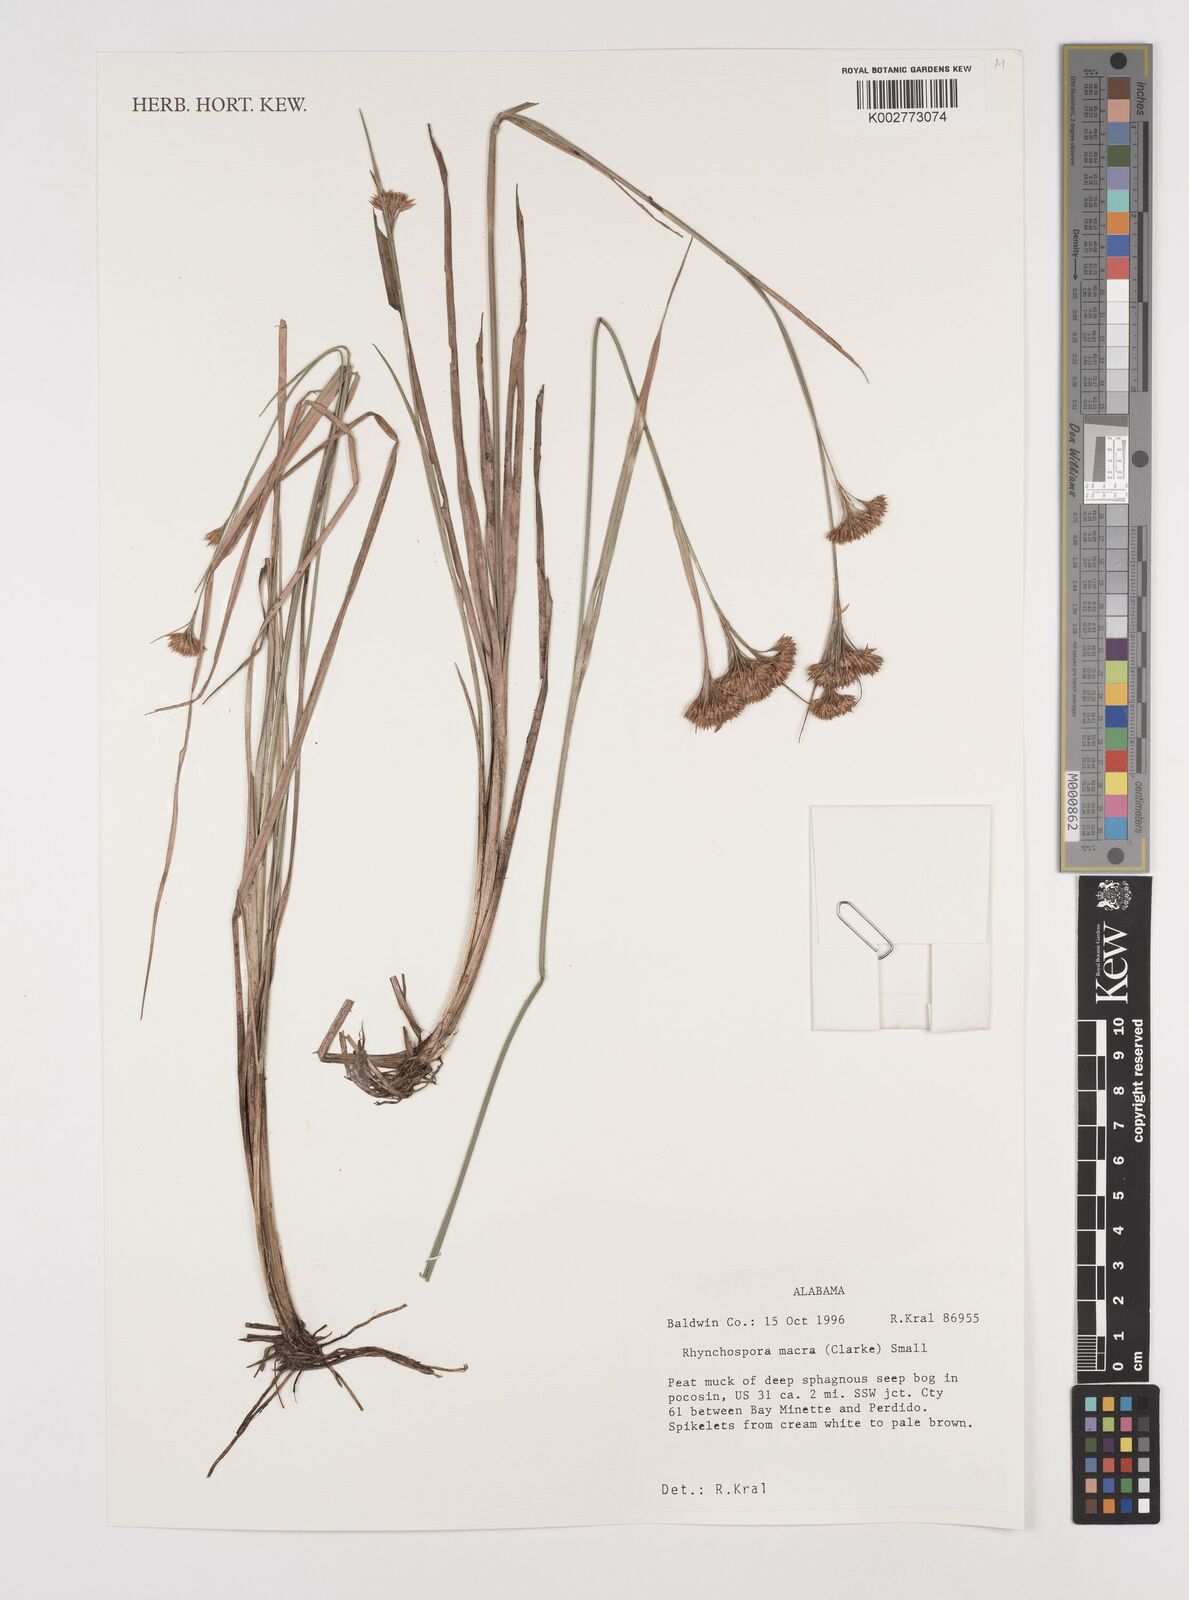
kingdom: Plantae
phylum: Tracheophyta
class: Liliopsida
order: Poales
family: Cyperaceae
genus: Rhynchospora
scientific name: Rhynchospora macra
